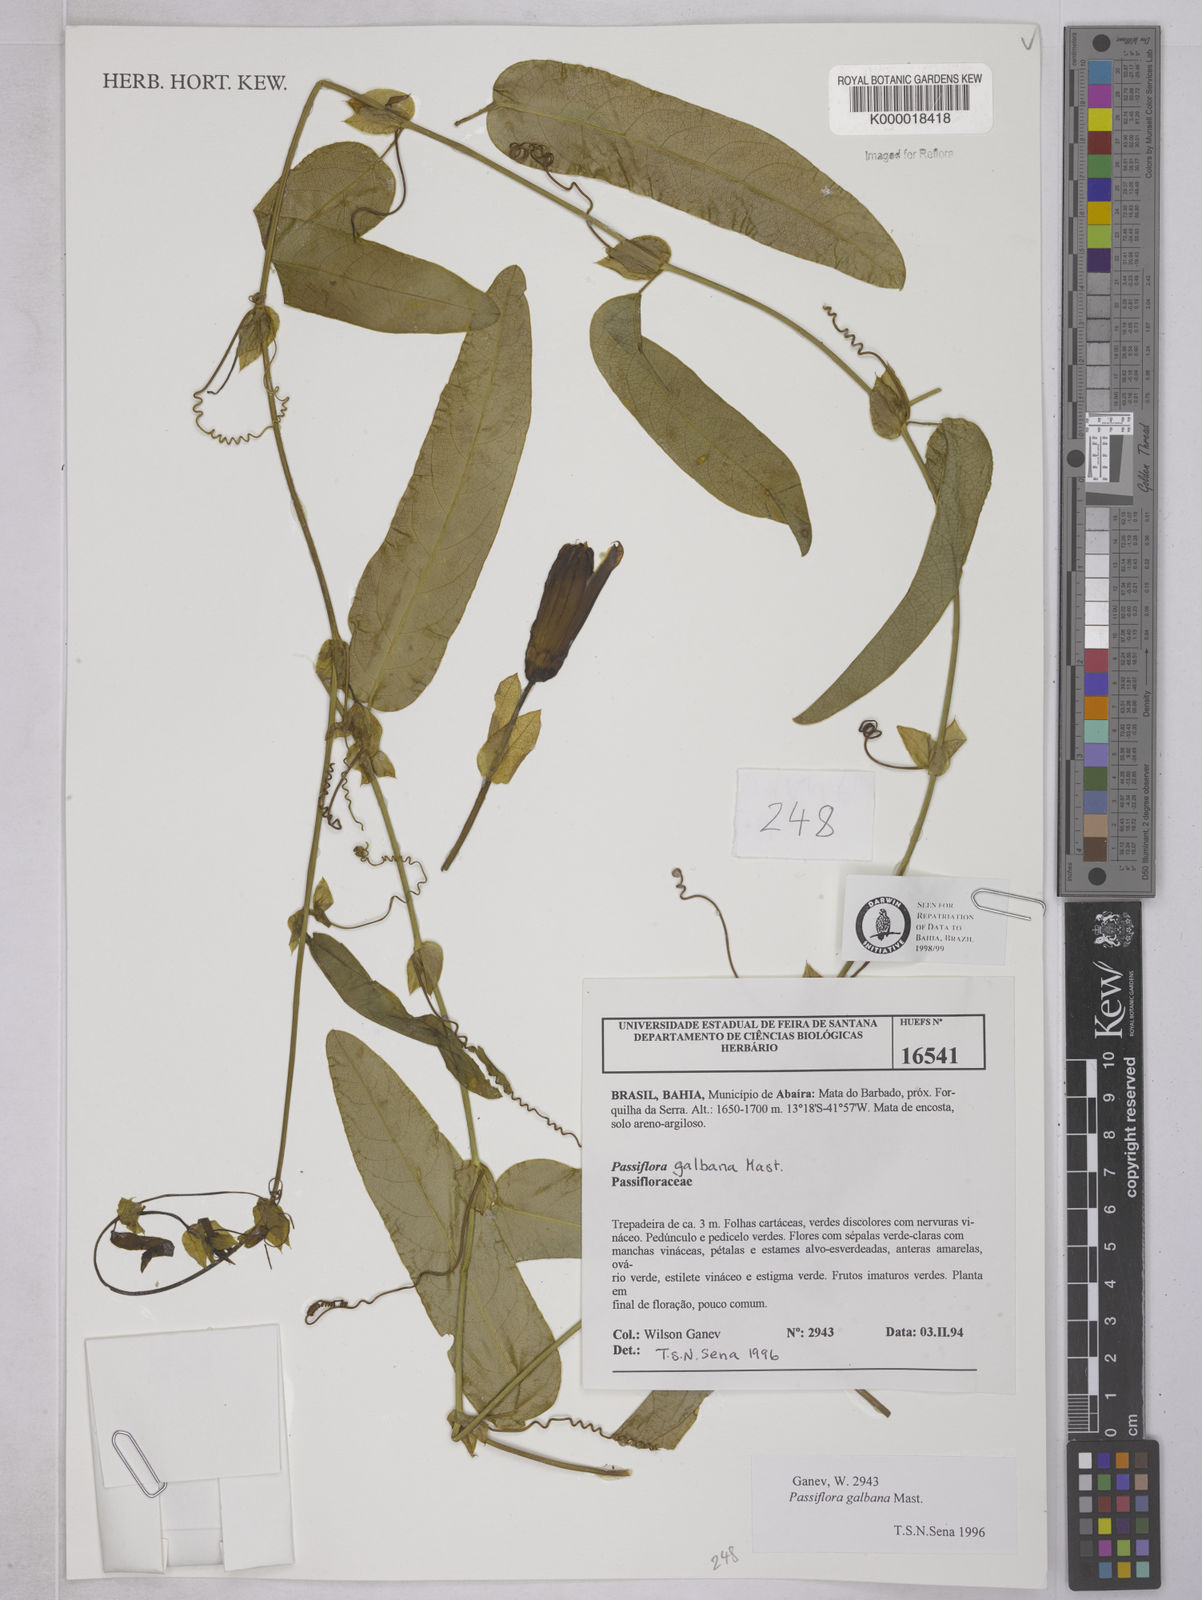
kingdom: Plantae
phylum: Tracheophyta
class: Magnoliopsida
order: Malpighiales
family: Passifloraceae
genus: Passiflora
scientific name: Passiflora silvestris
